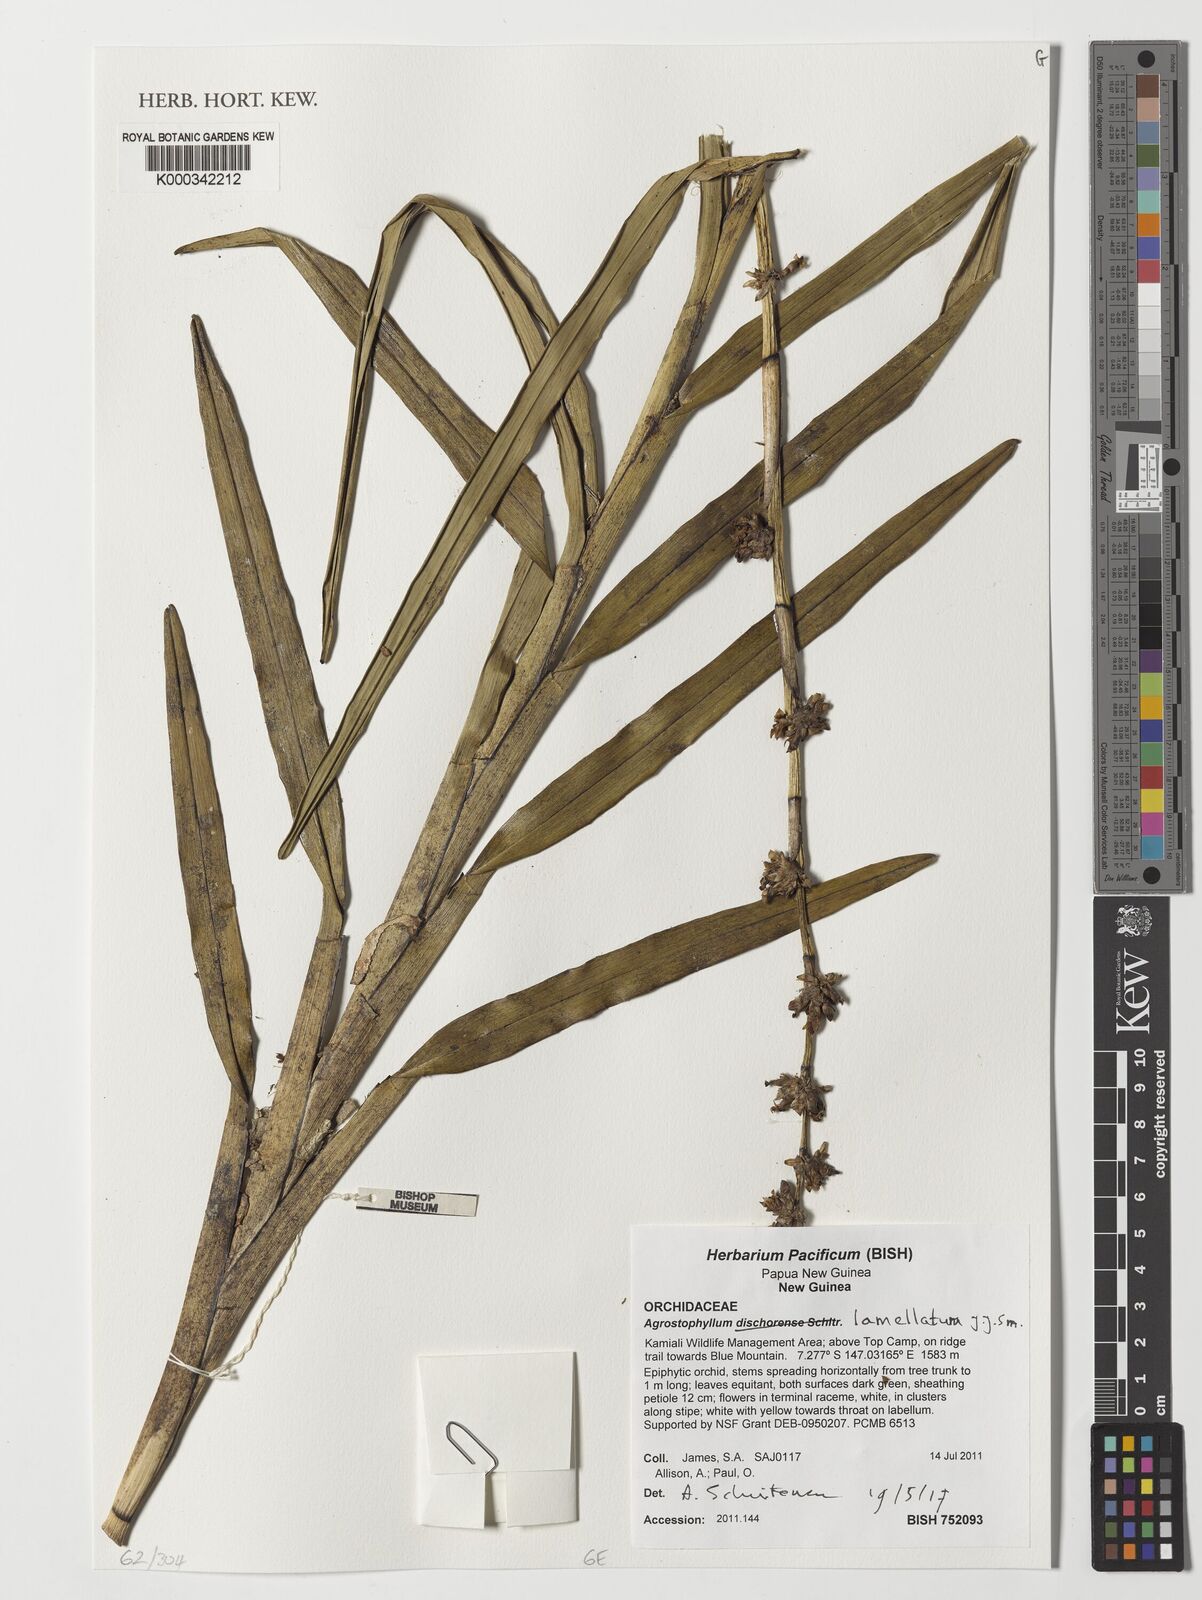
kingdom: Plantae
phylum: Tracheophyta
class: Liliopsida
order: Asparagales
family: Orchidaceae
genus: Agrostophyllum
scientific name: Agrostophyllum lamellatum
